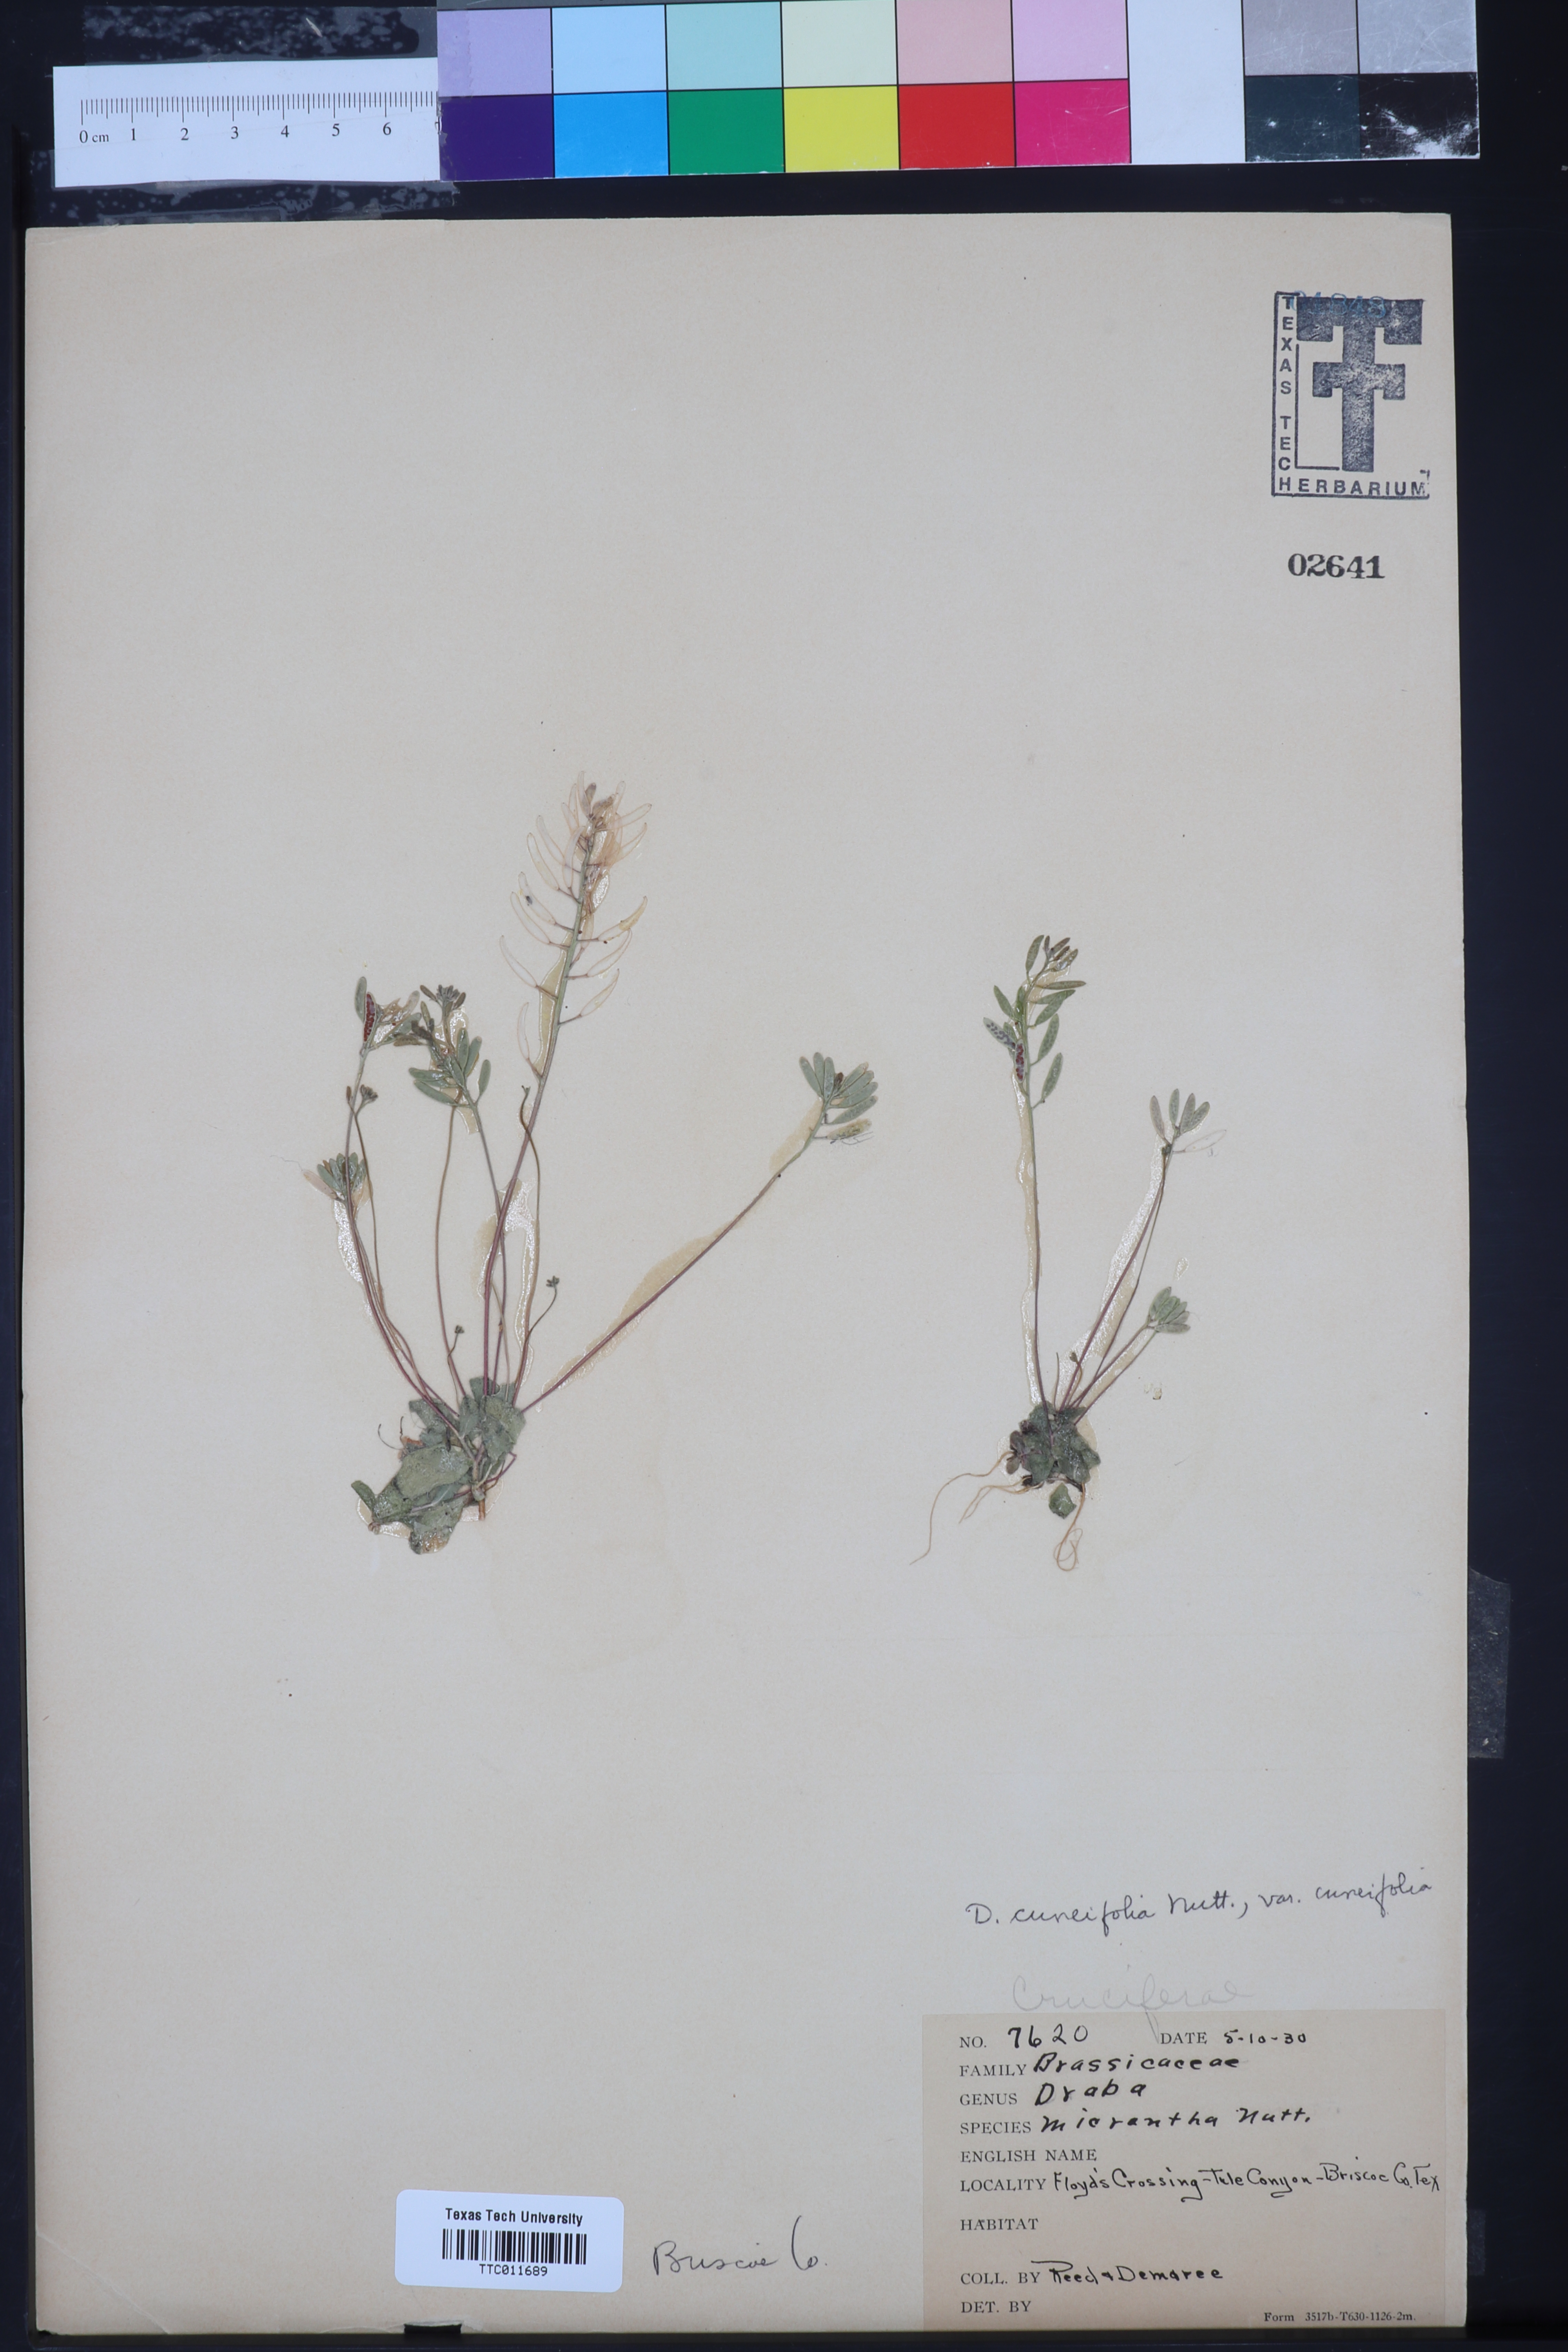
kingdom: Plantae
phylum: Tracheophyta
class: Magnoliopsida
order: Brassicales
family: Brassicaceae
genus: Tomostima
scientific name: Tomostima cuneifolia
